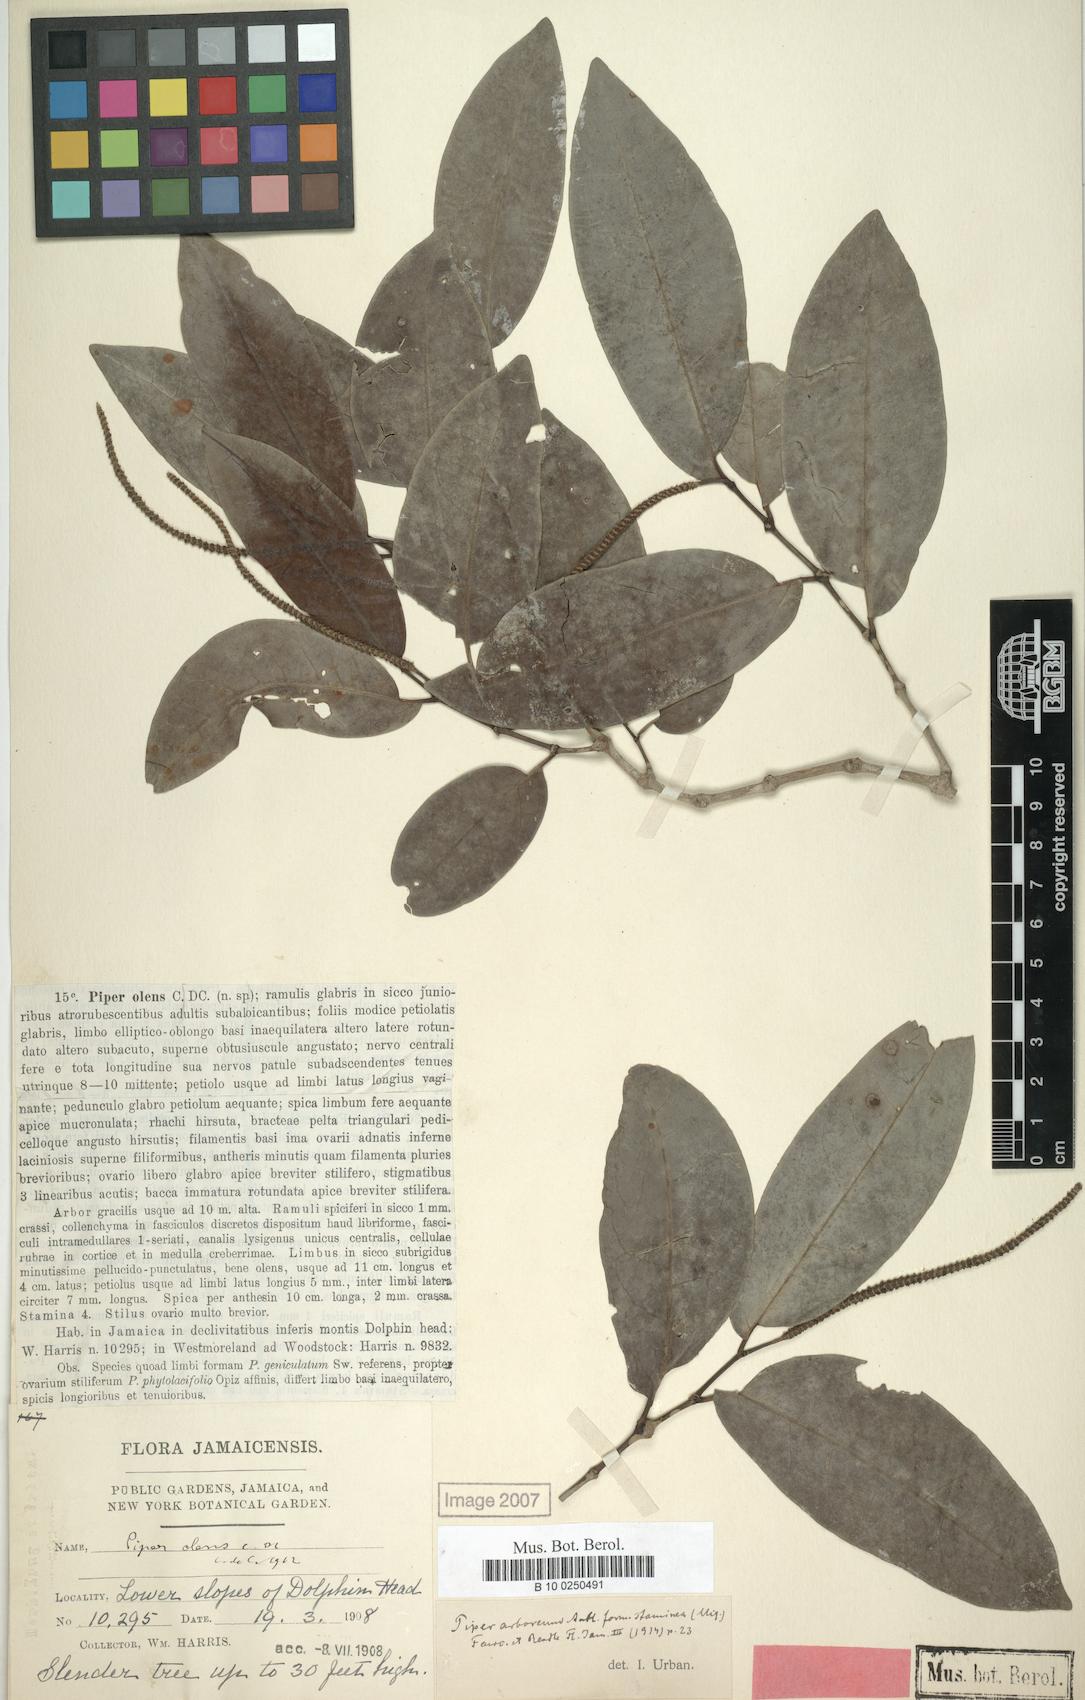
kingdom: Plantae
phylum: Tracheophyta
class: Magnoliopsida
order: Piperales
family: Piperaceae
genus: Piper
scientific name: Piper arboreum
